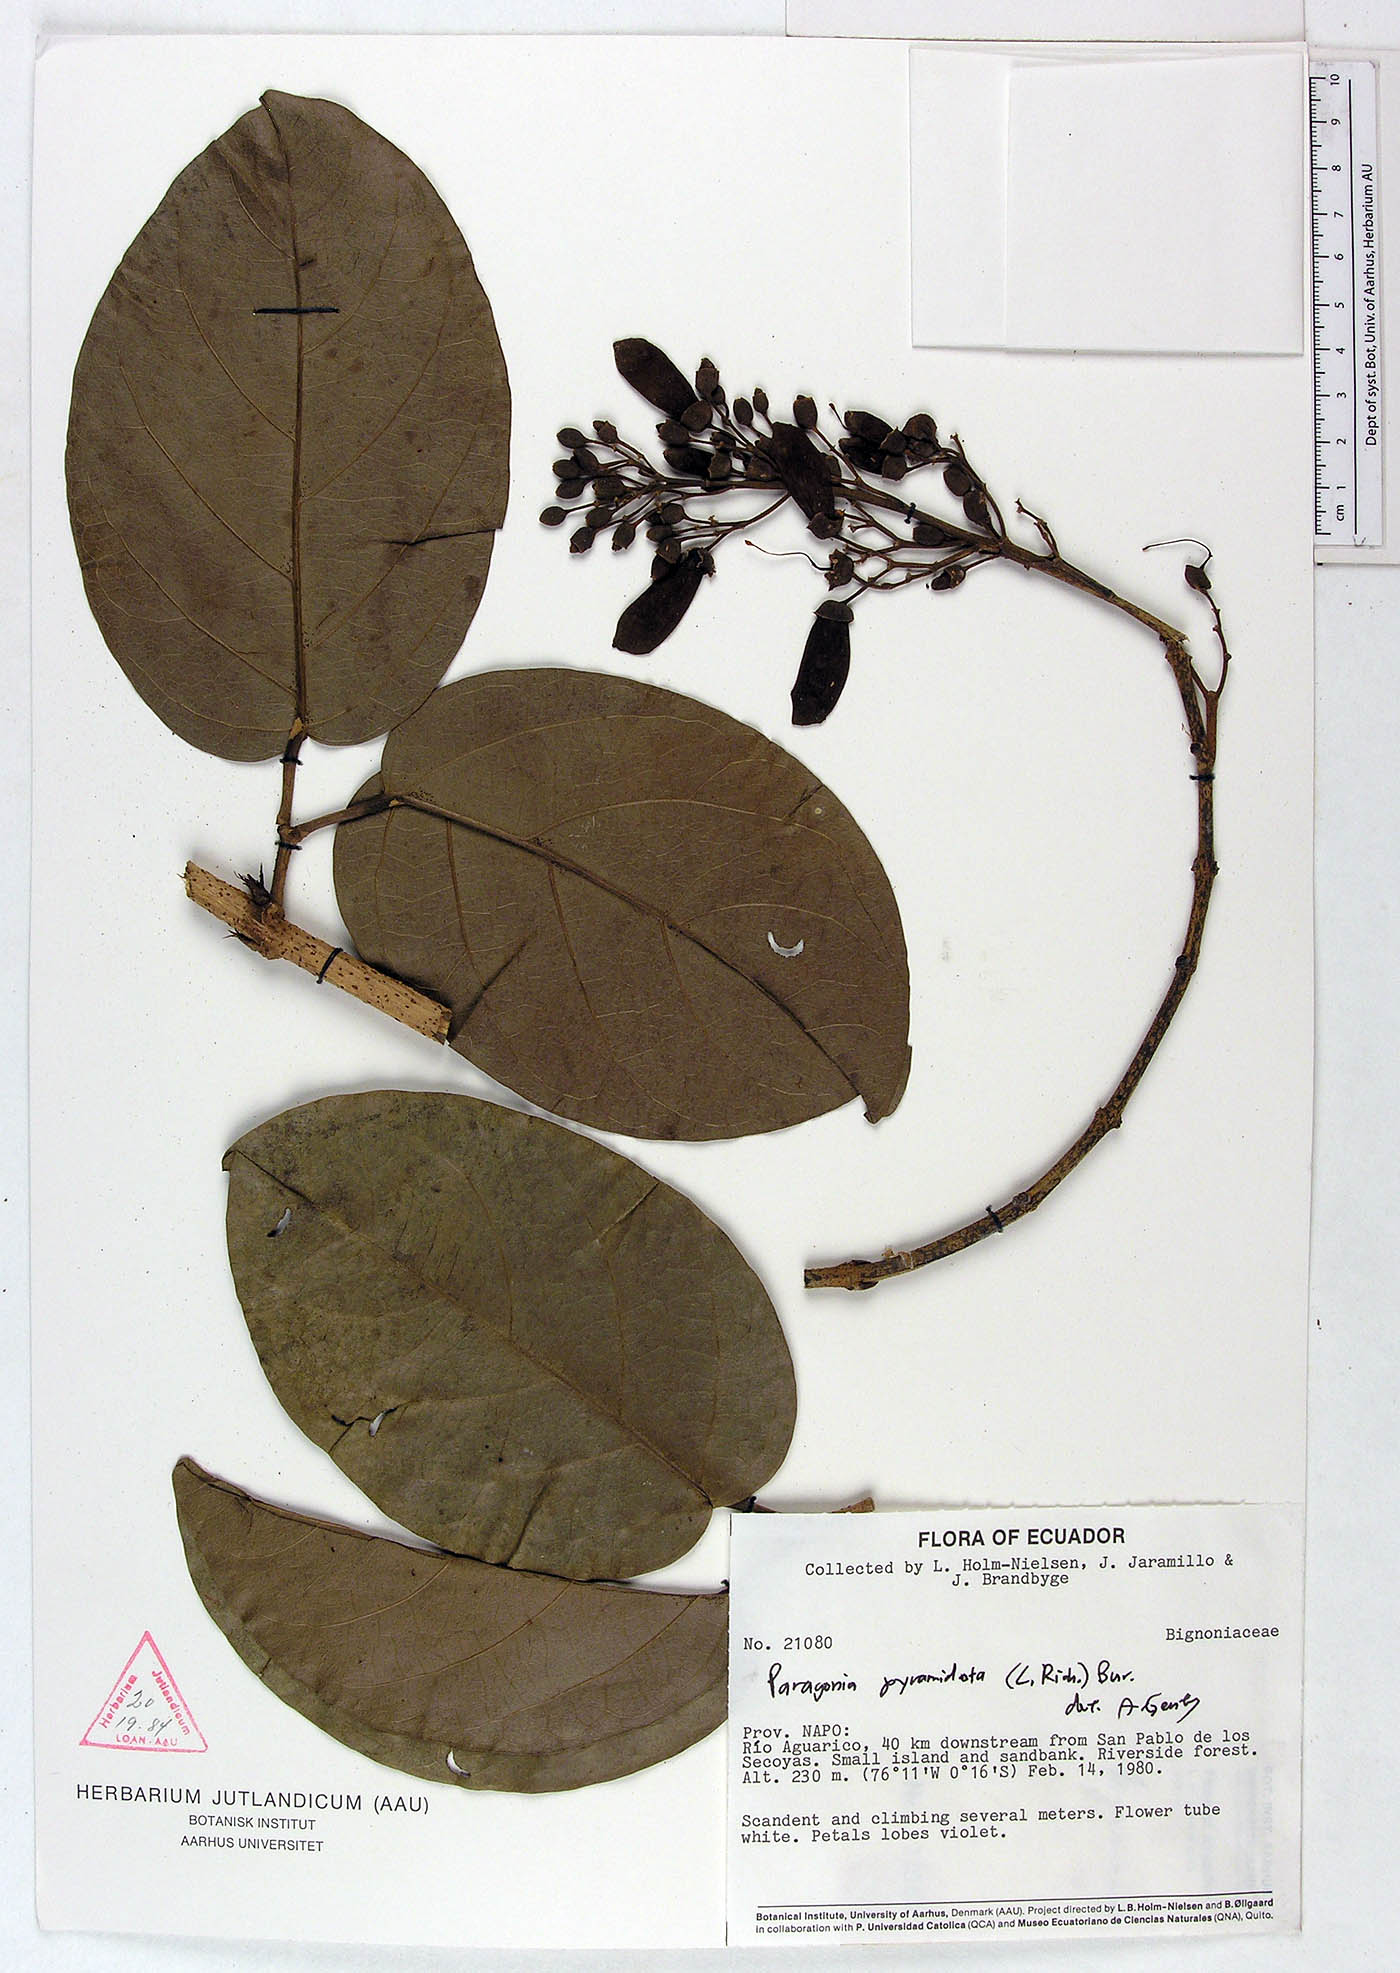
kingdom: Plantae
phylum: Tracheophyta
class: Magnoliopsida
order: Lamiales
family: Bignoniaceae
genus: Tanaecium
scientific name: Tanaecium pyramidatum
